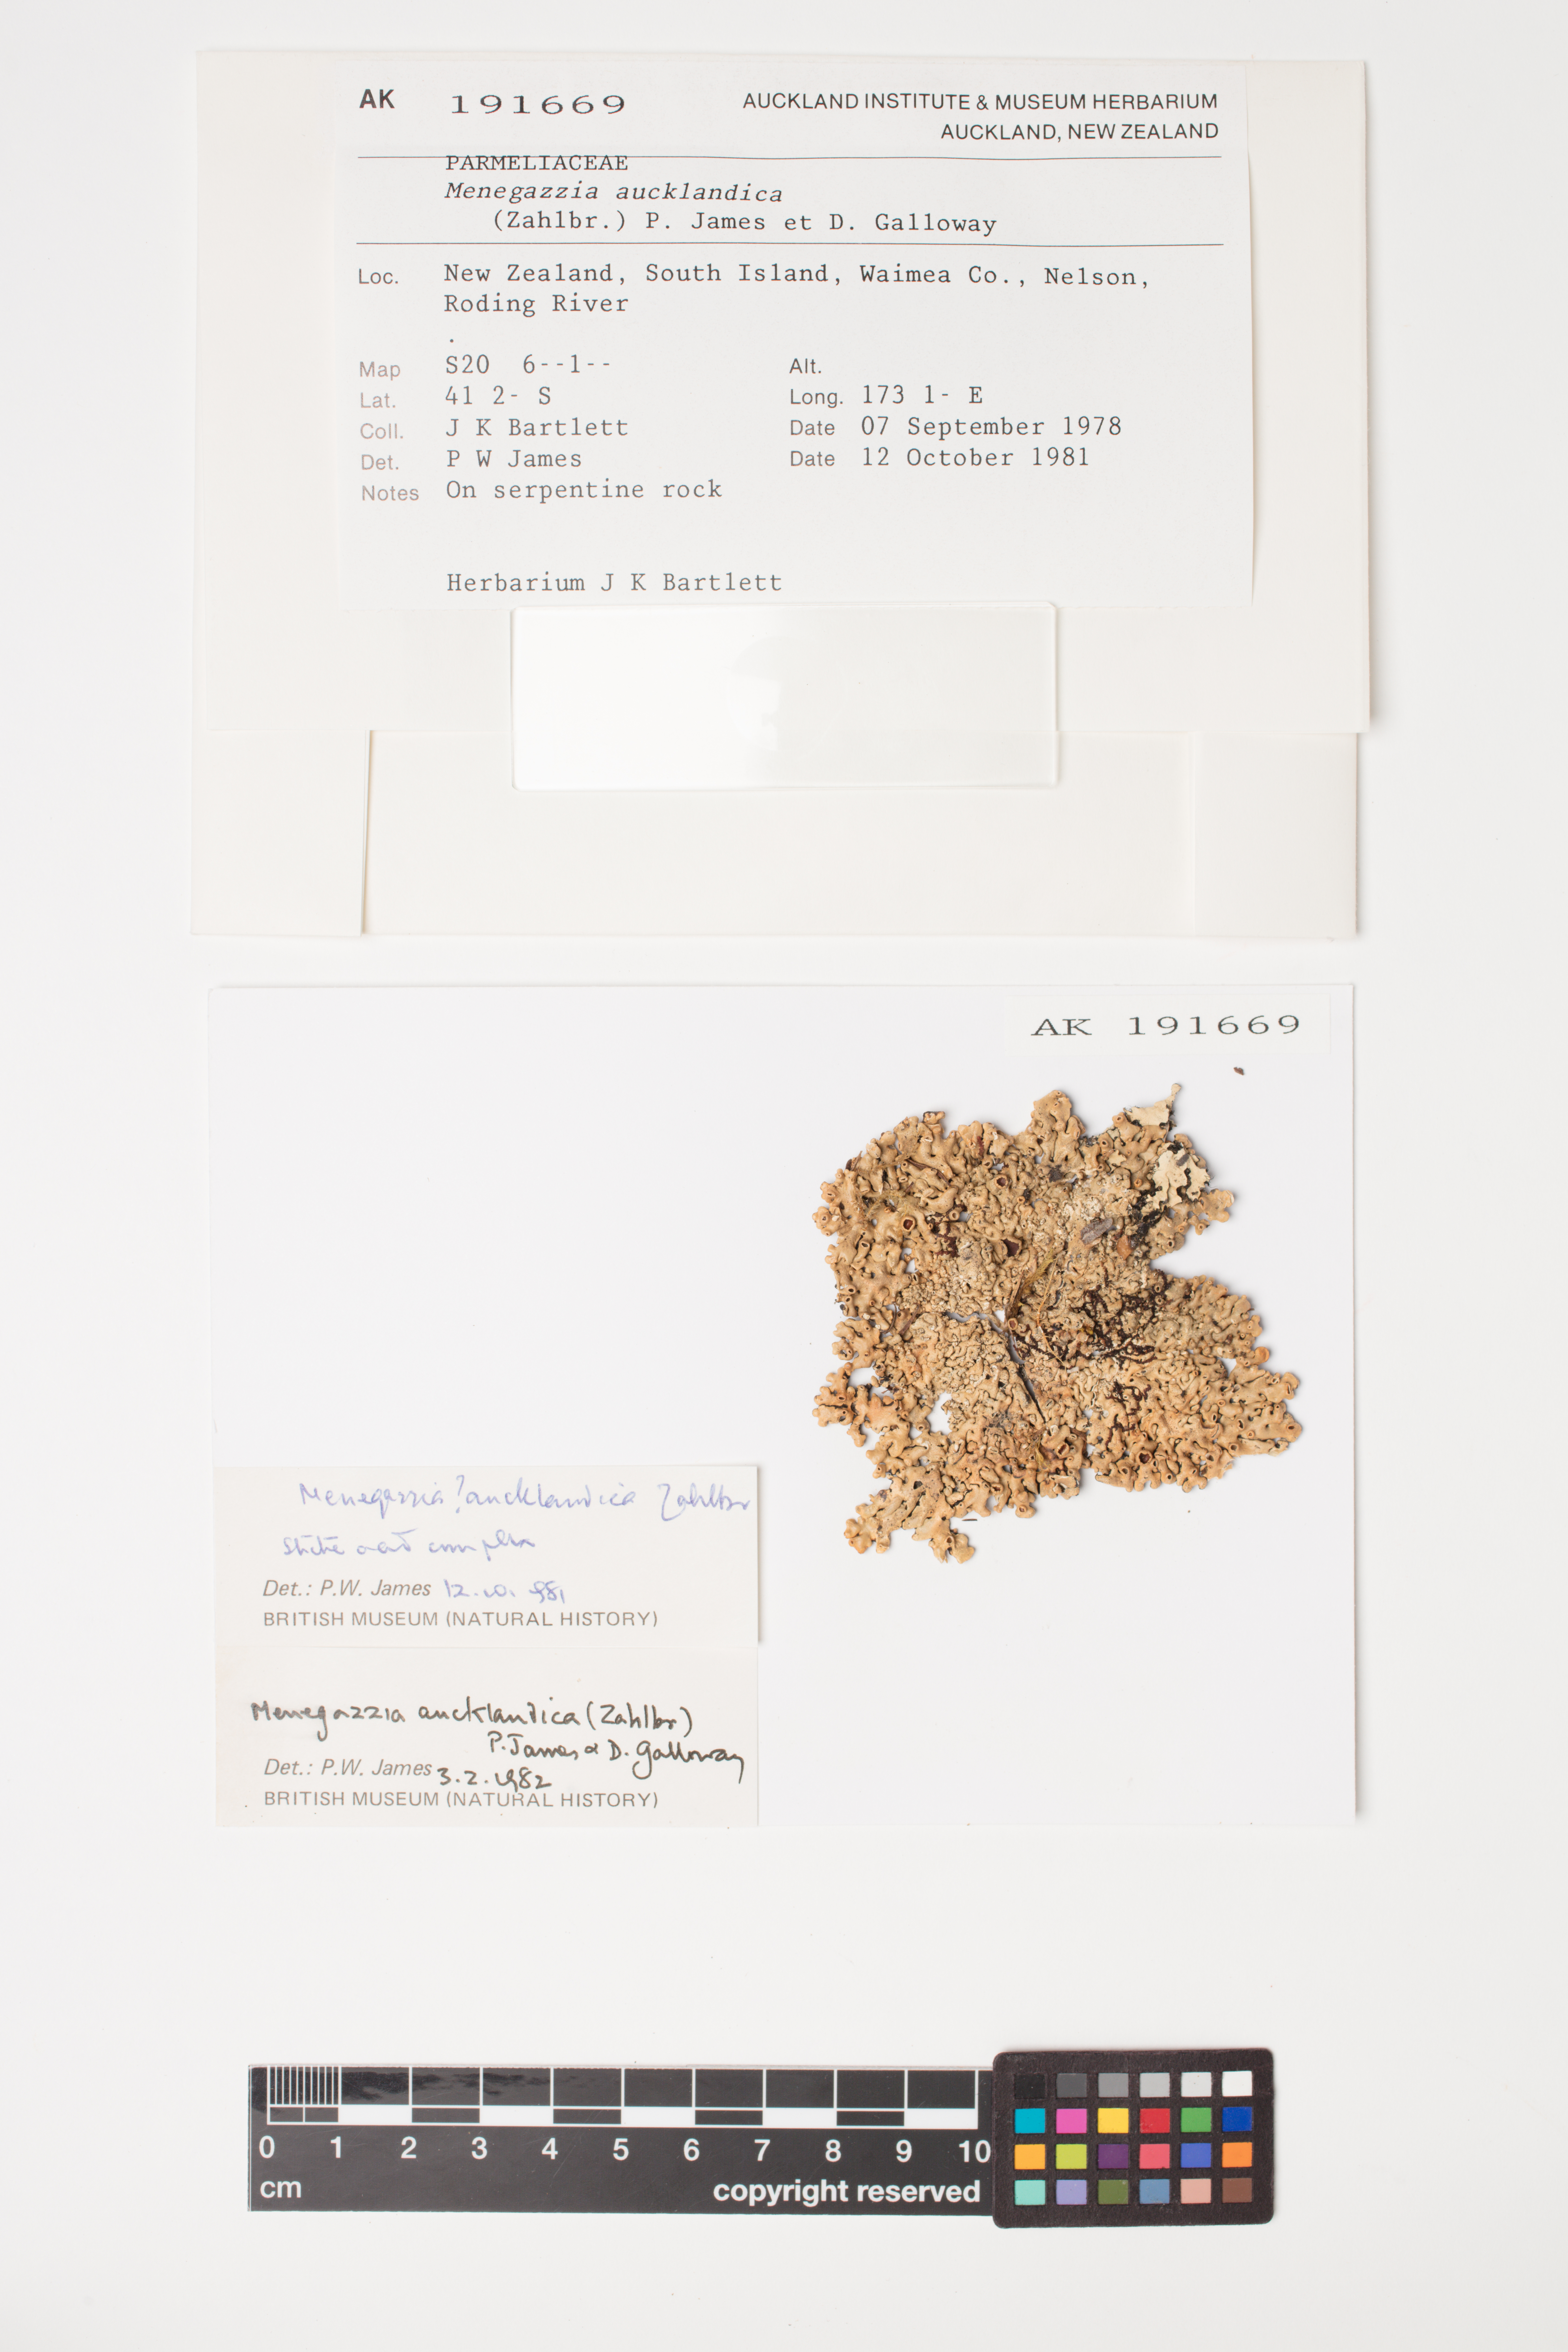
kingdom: Fungi
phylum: Ascomycota
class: Lecanoromycetes
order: Lecanorales
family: Parmeliaceae
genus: Menegazzia
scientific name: Menegazzia aucklandica
